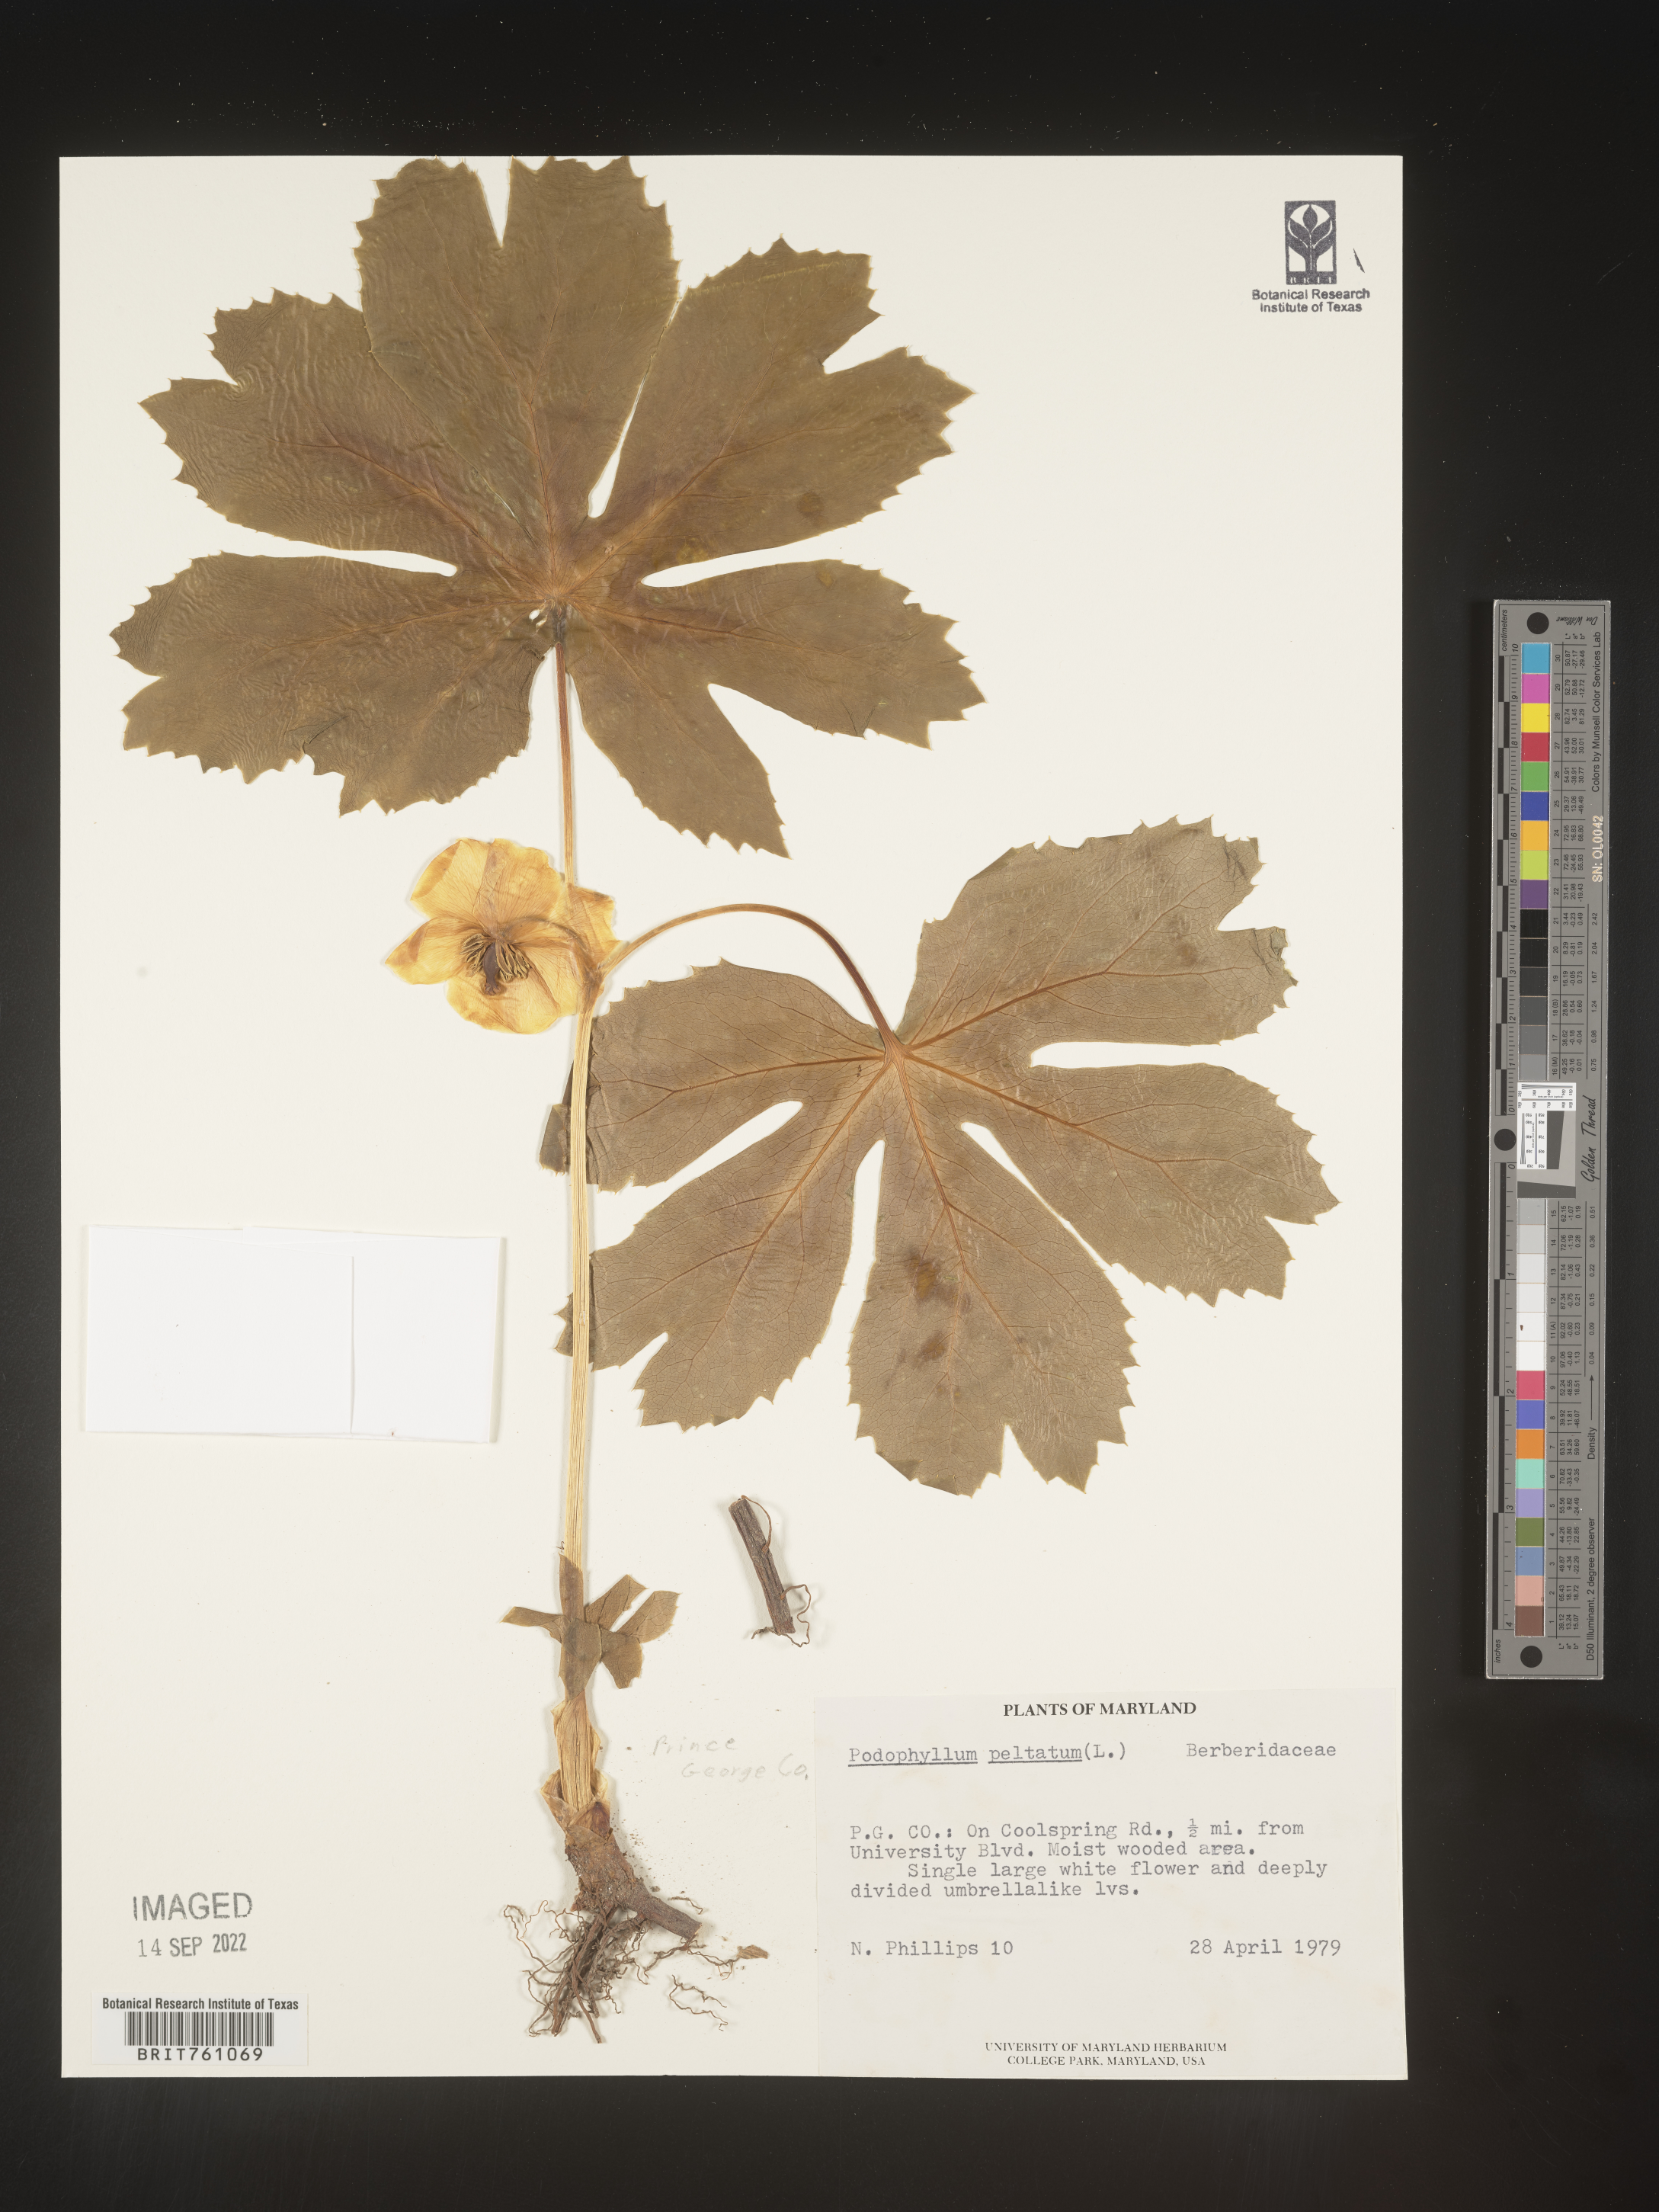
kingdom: Plantae
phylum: Tracheophyta
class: Magnoliopsida
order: Ranunculales
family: Berberidaceae
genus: Podophyllum
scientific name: Podophyllum peltatum
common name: Wild mandrake
